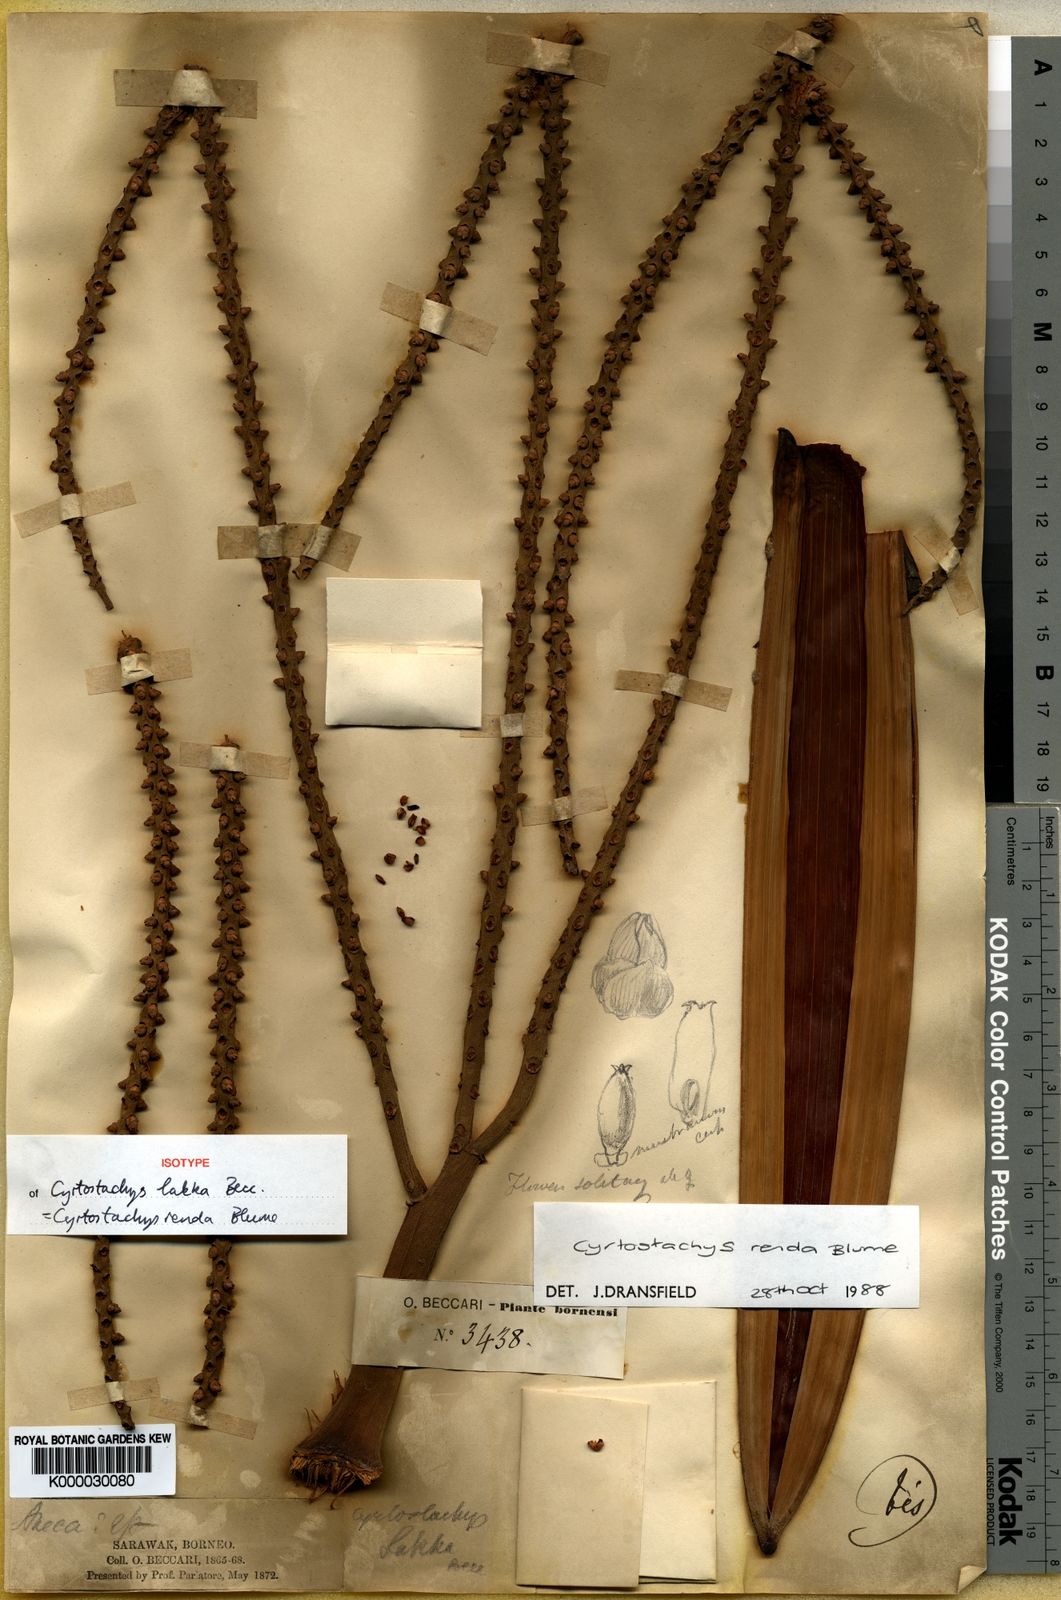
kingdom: Plantae
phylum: Tracheophyta
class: Liliopsida
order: Arecales
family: Arecaceae
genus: Cyrtostachys
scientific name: Cyrtostachys renda
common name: Lipstick palm
